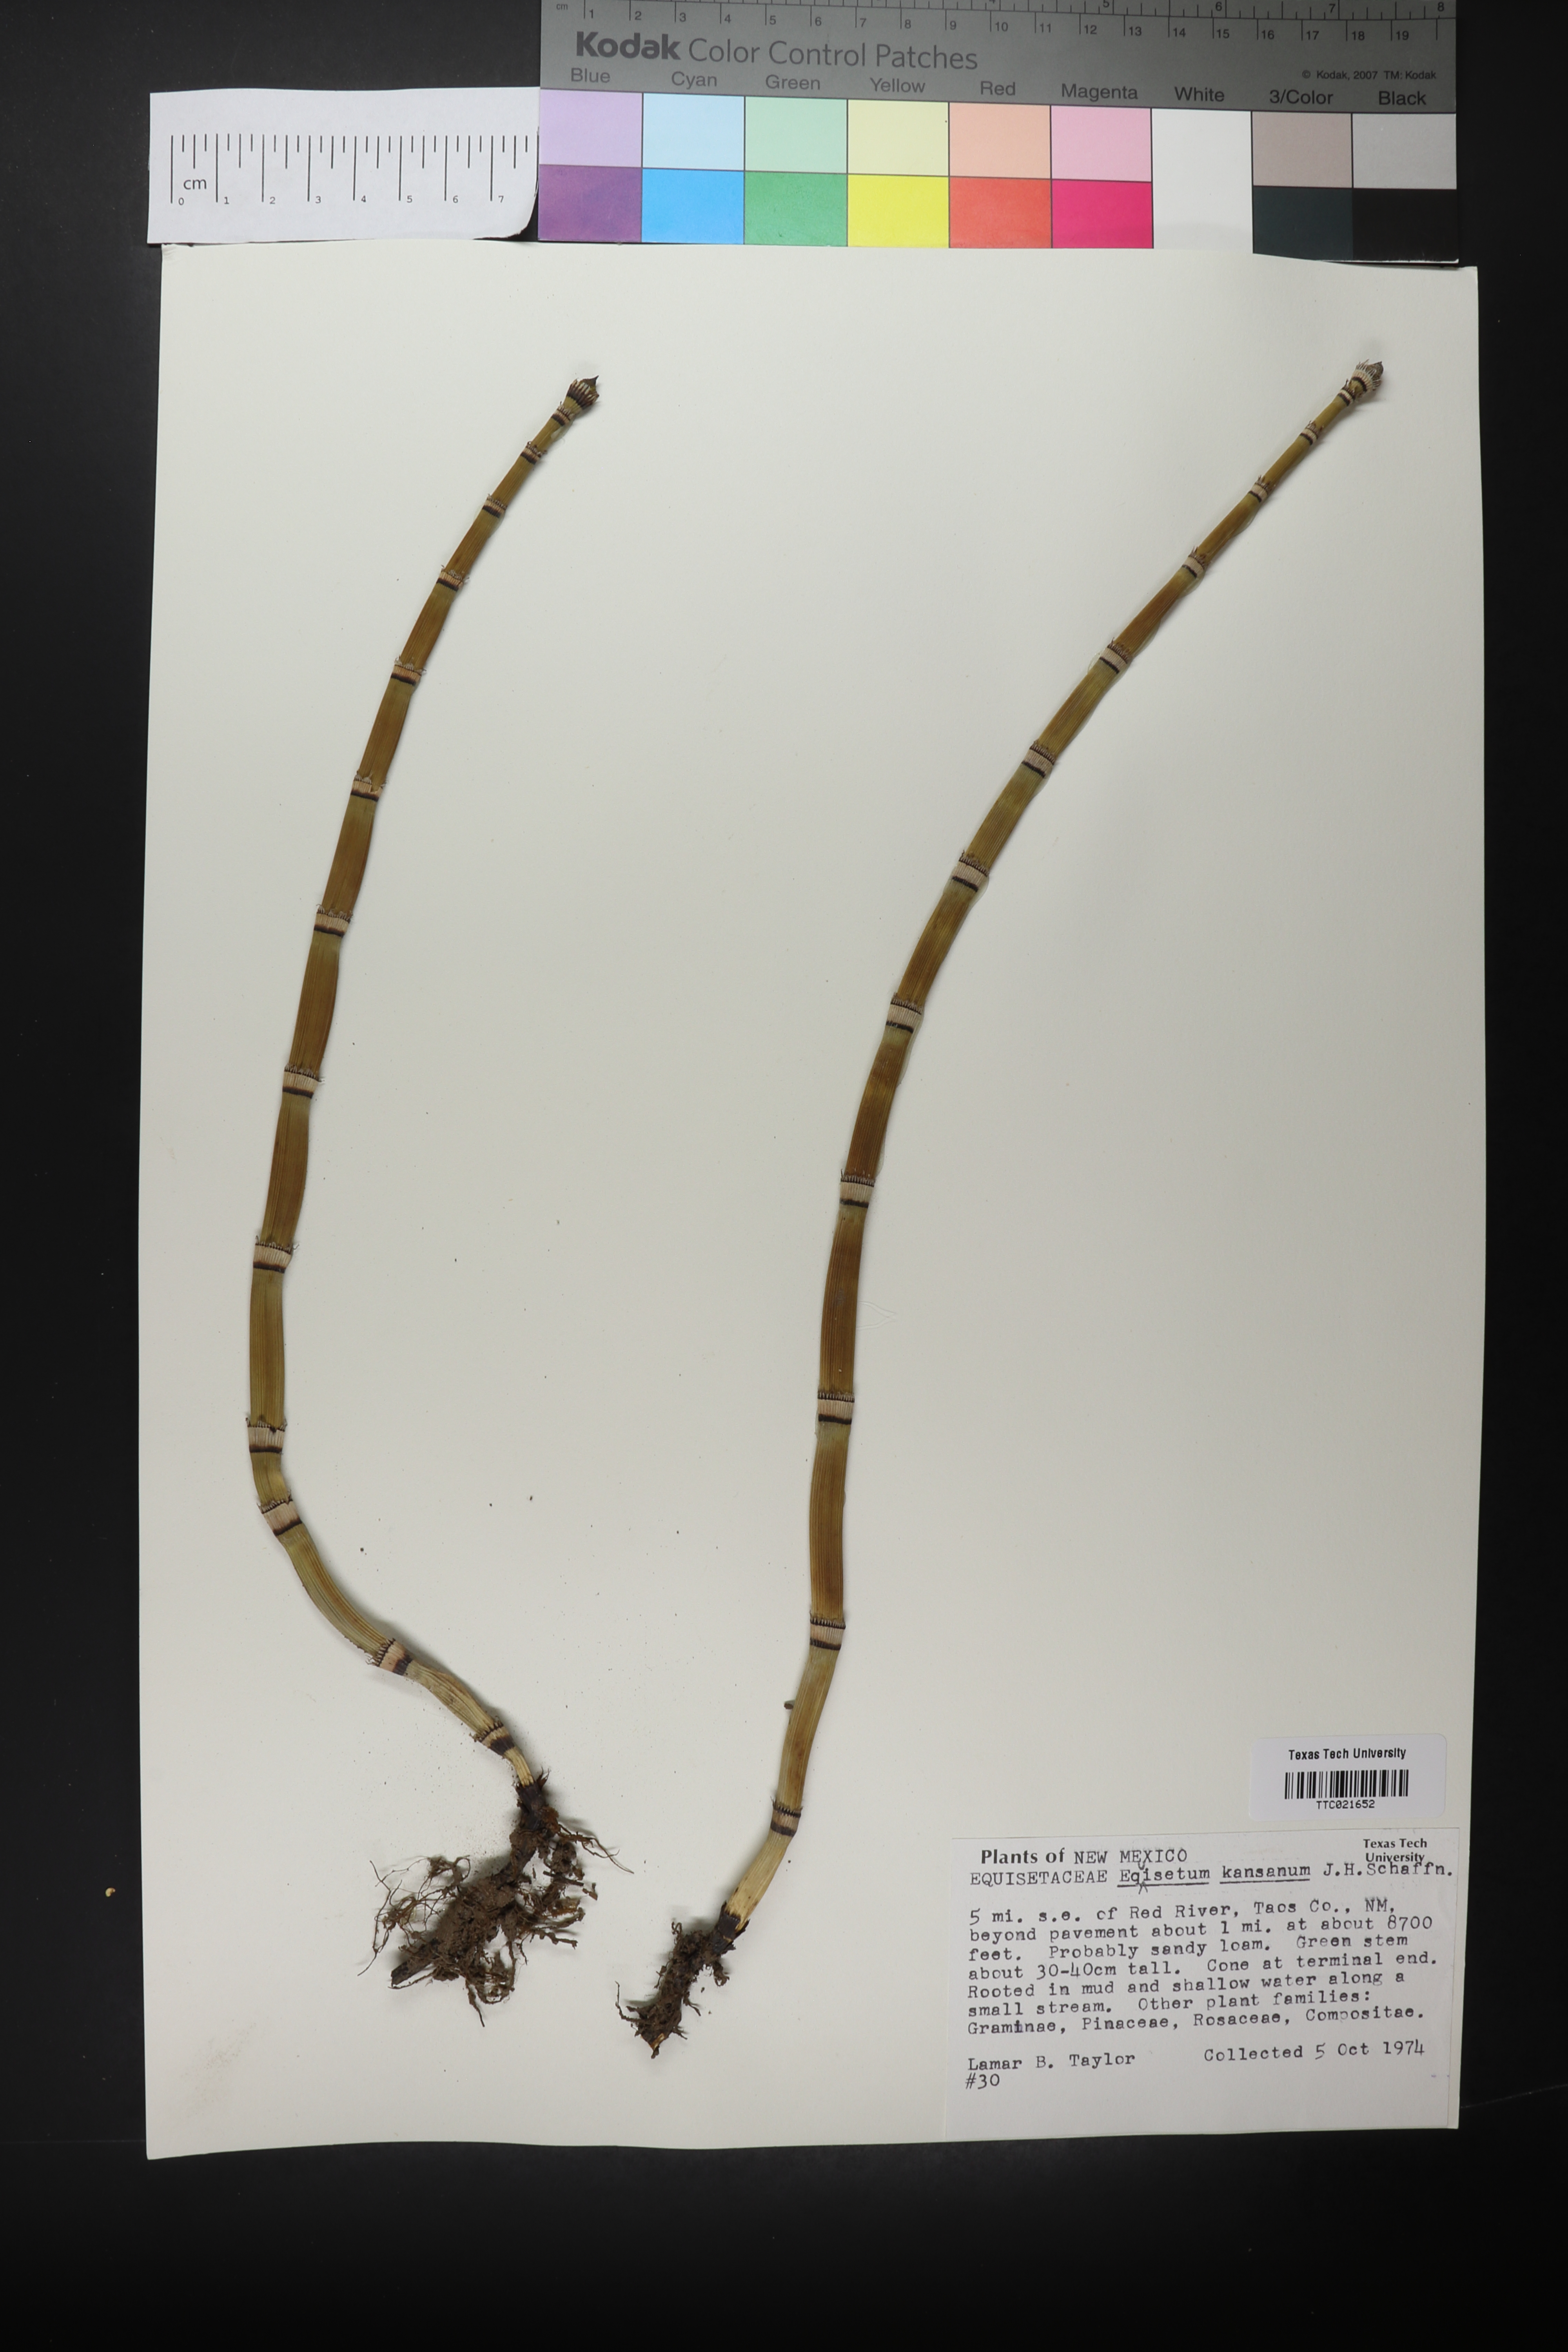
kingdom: Plantae
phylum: Tracheophyta
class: Polypodiopsida
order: Equisetales
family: Equisetaceae
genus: Equisetum
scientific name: Equisetum laevigatum
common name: Smooth scouring-rush
